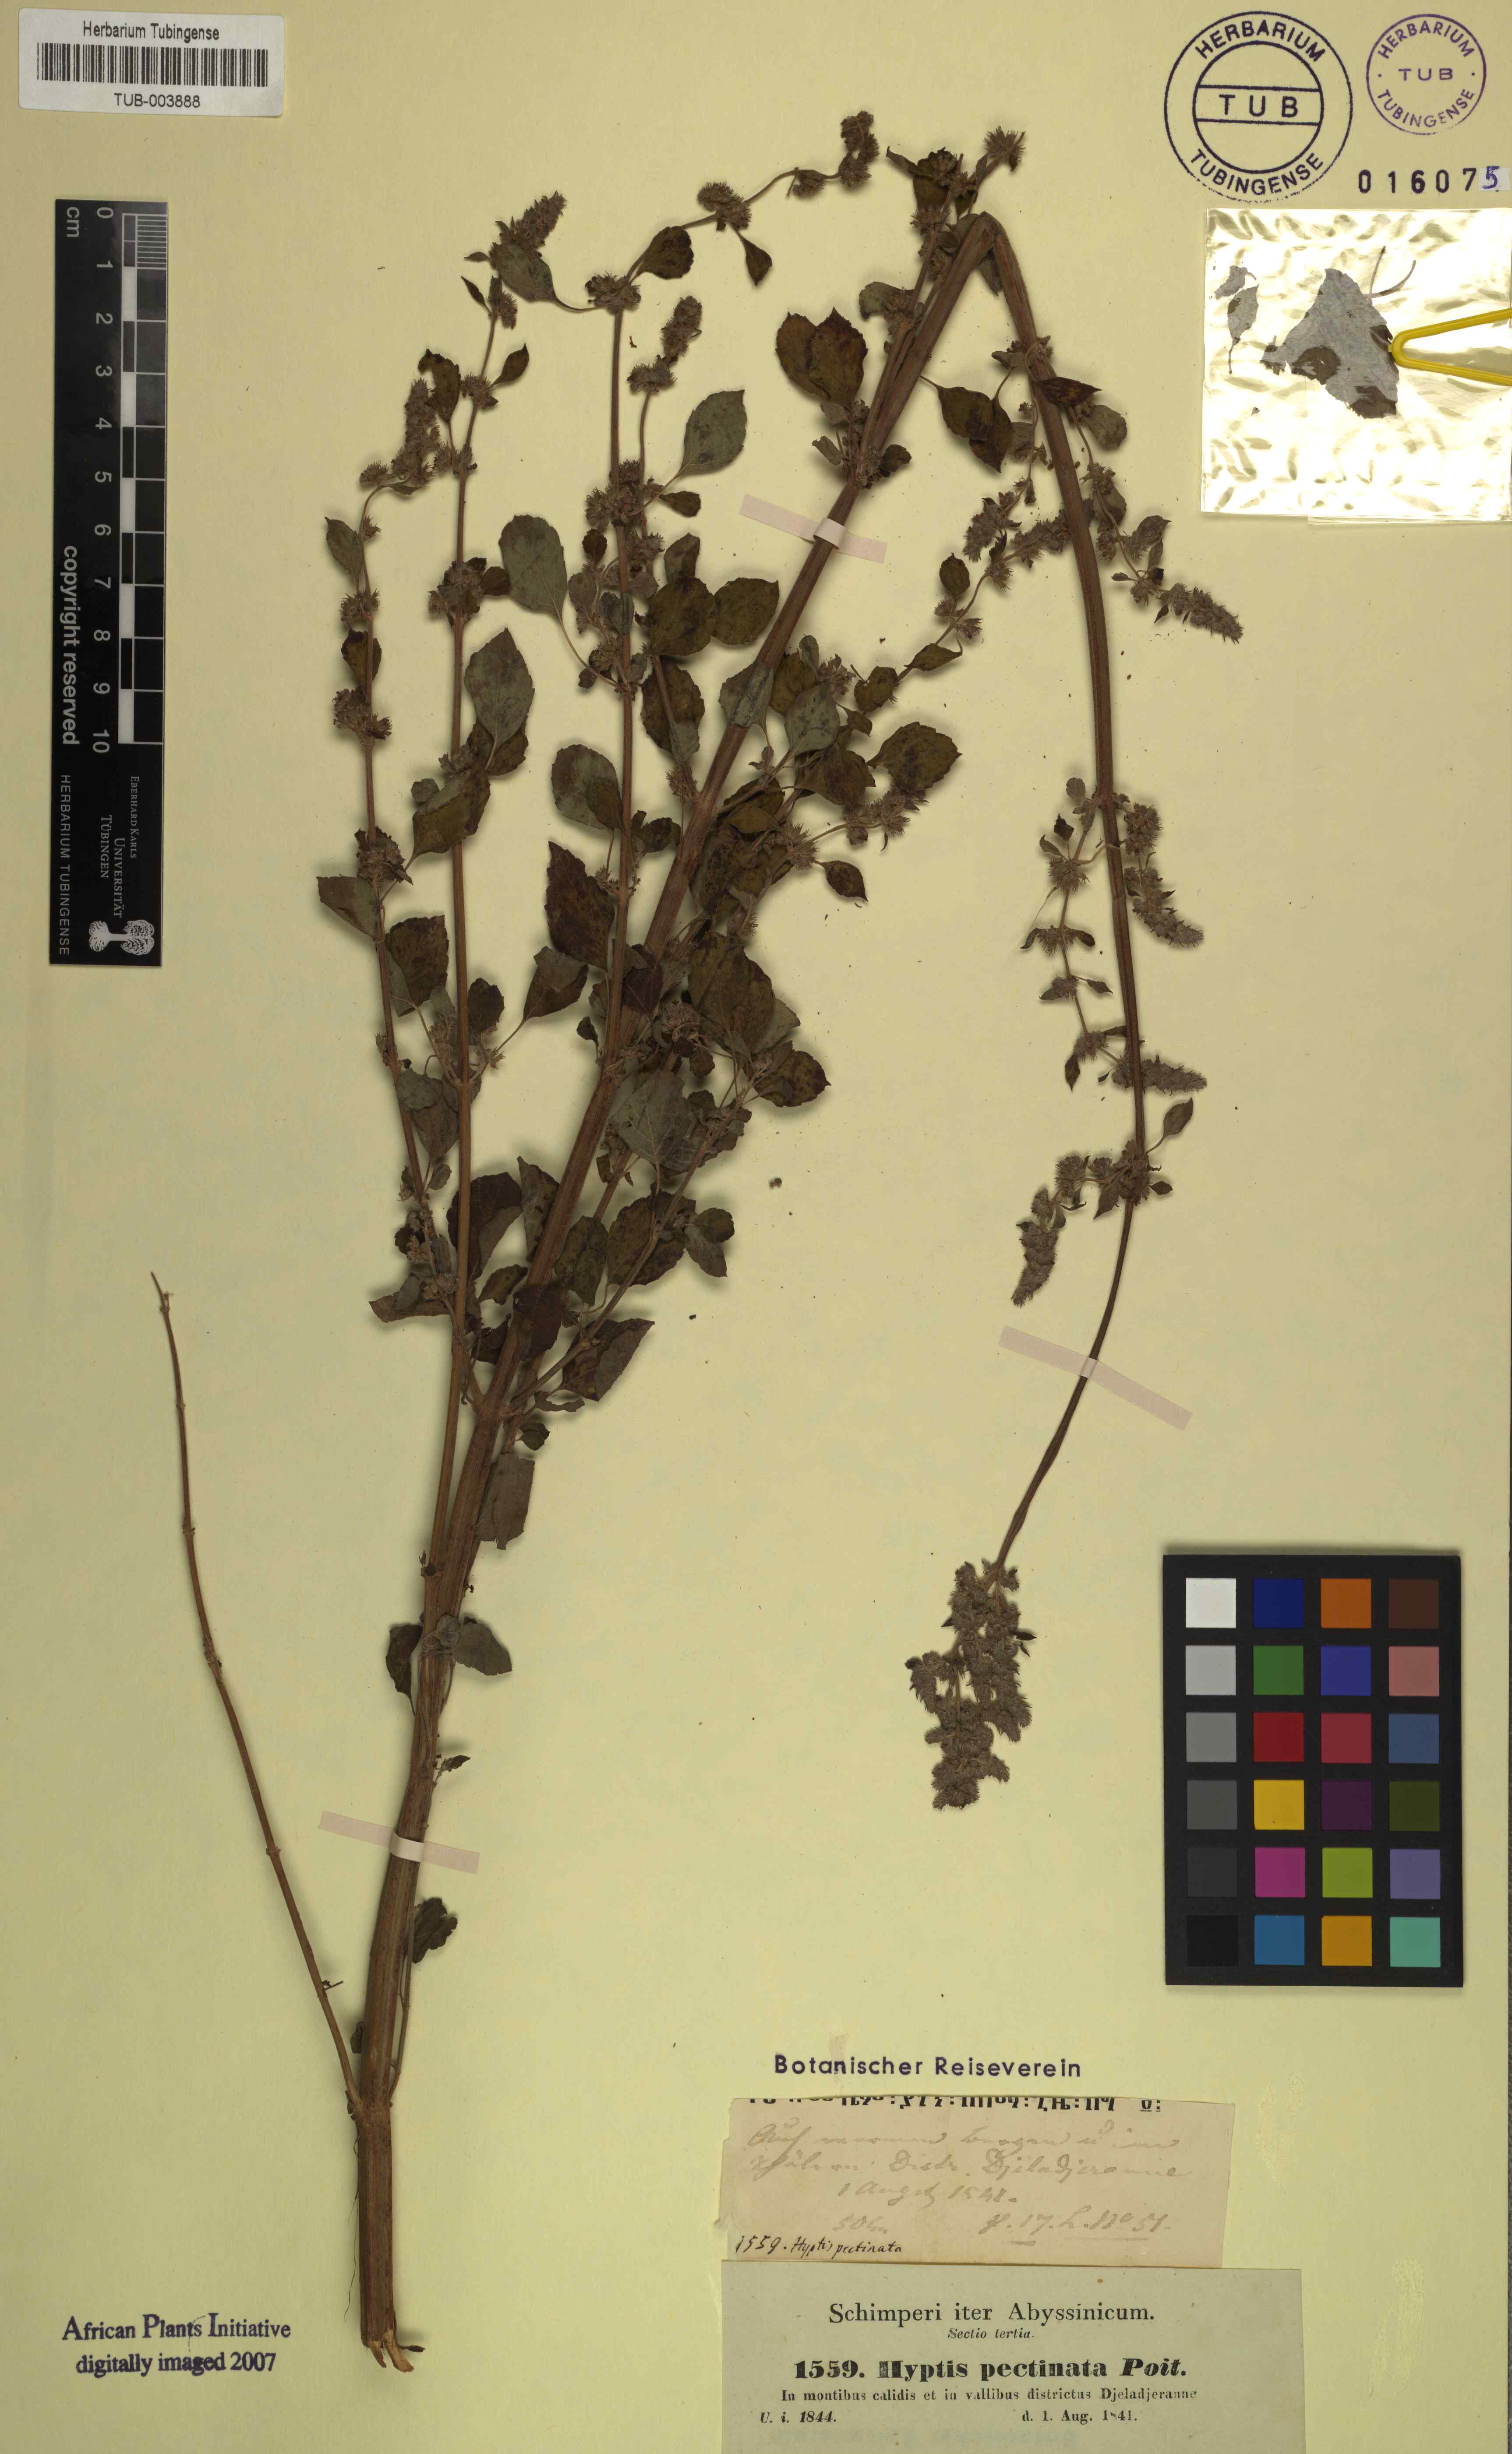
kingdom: Plantae
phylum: Tracheophyta
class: Magnoliopsida
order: Lamiales
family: Lamiaceae
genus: Mesosphaerum
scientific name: Mesosphaerum pectinatum
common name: Comb hyptis
